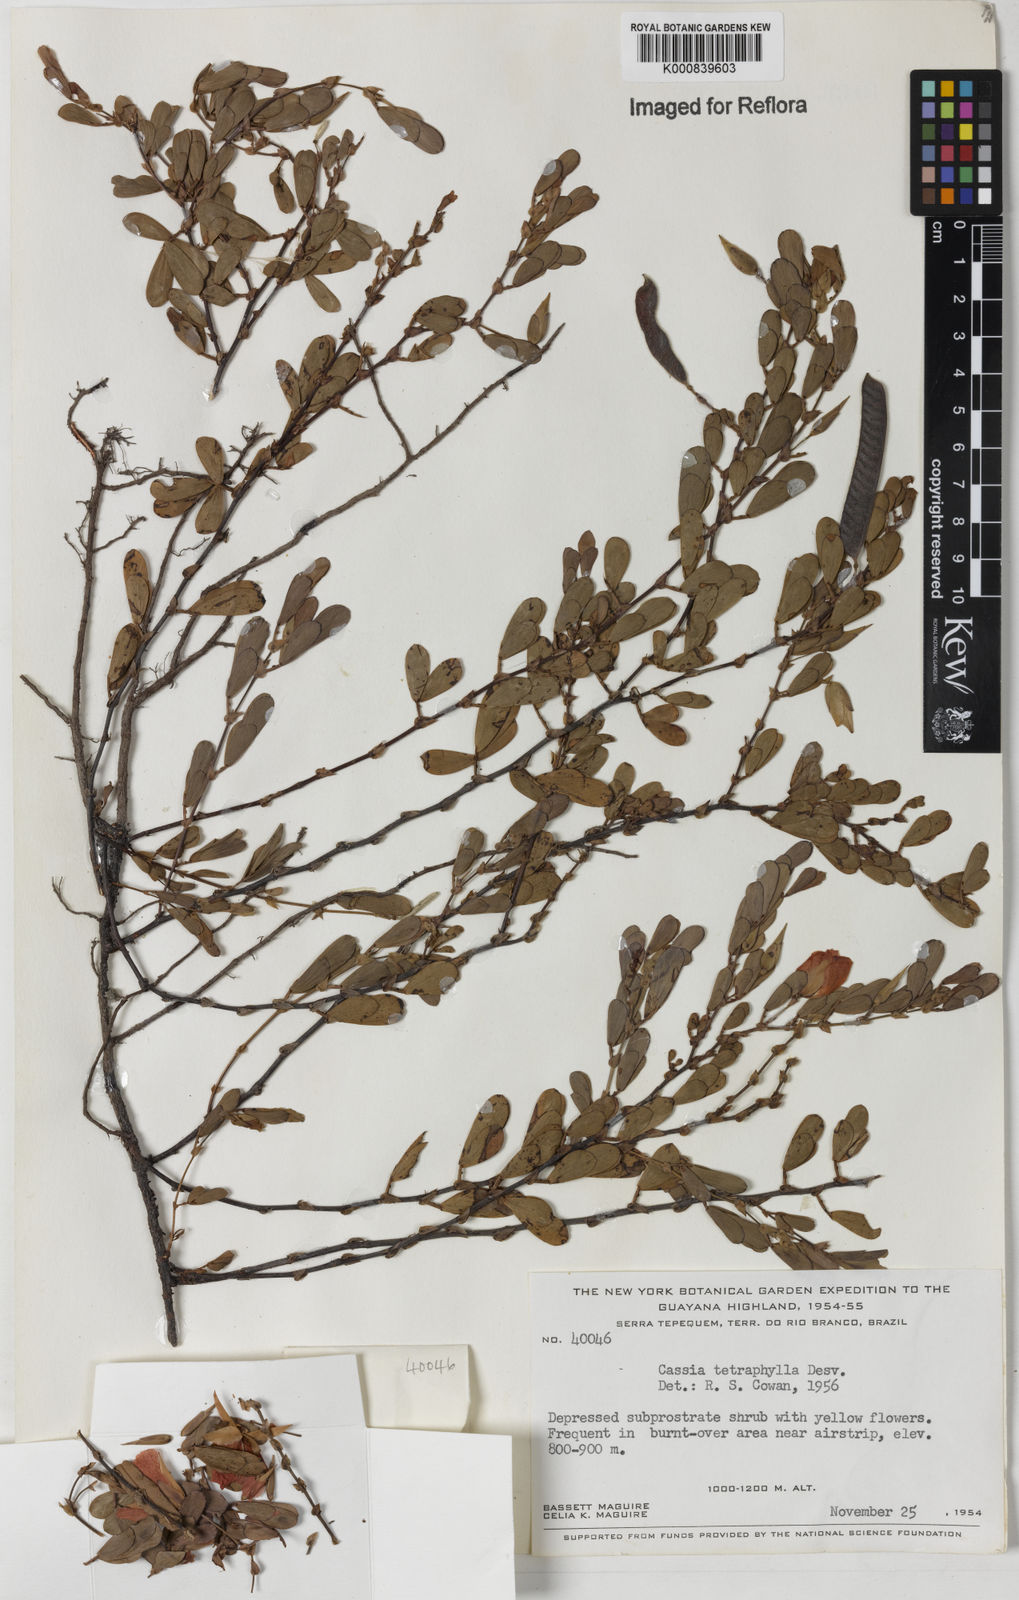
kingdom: Plantae
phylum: Tracheophyta
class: Magnoliopsida
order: Fabales
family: Fabaceae
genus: Chamaecrista
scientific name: Chamaecrista desvauxii
